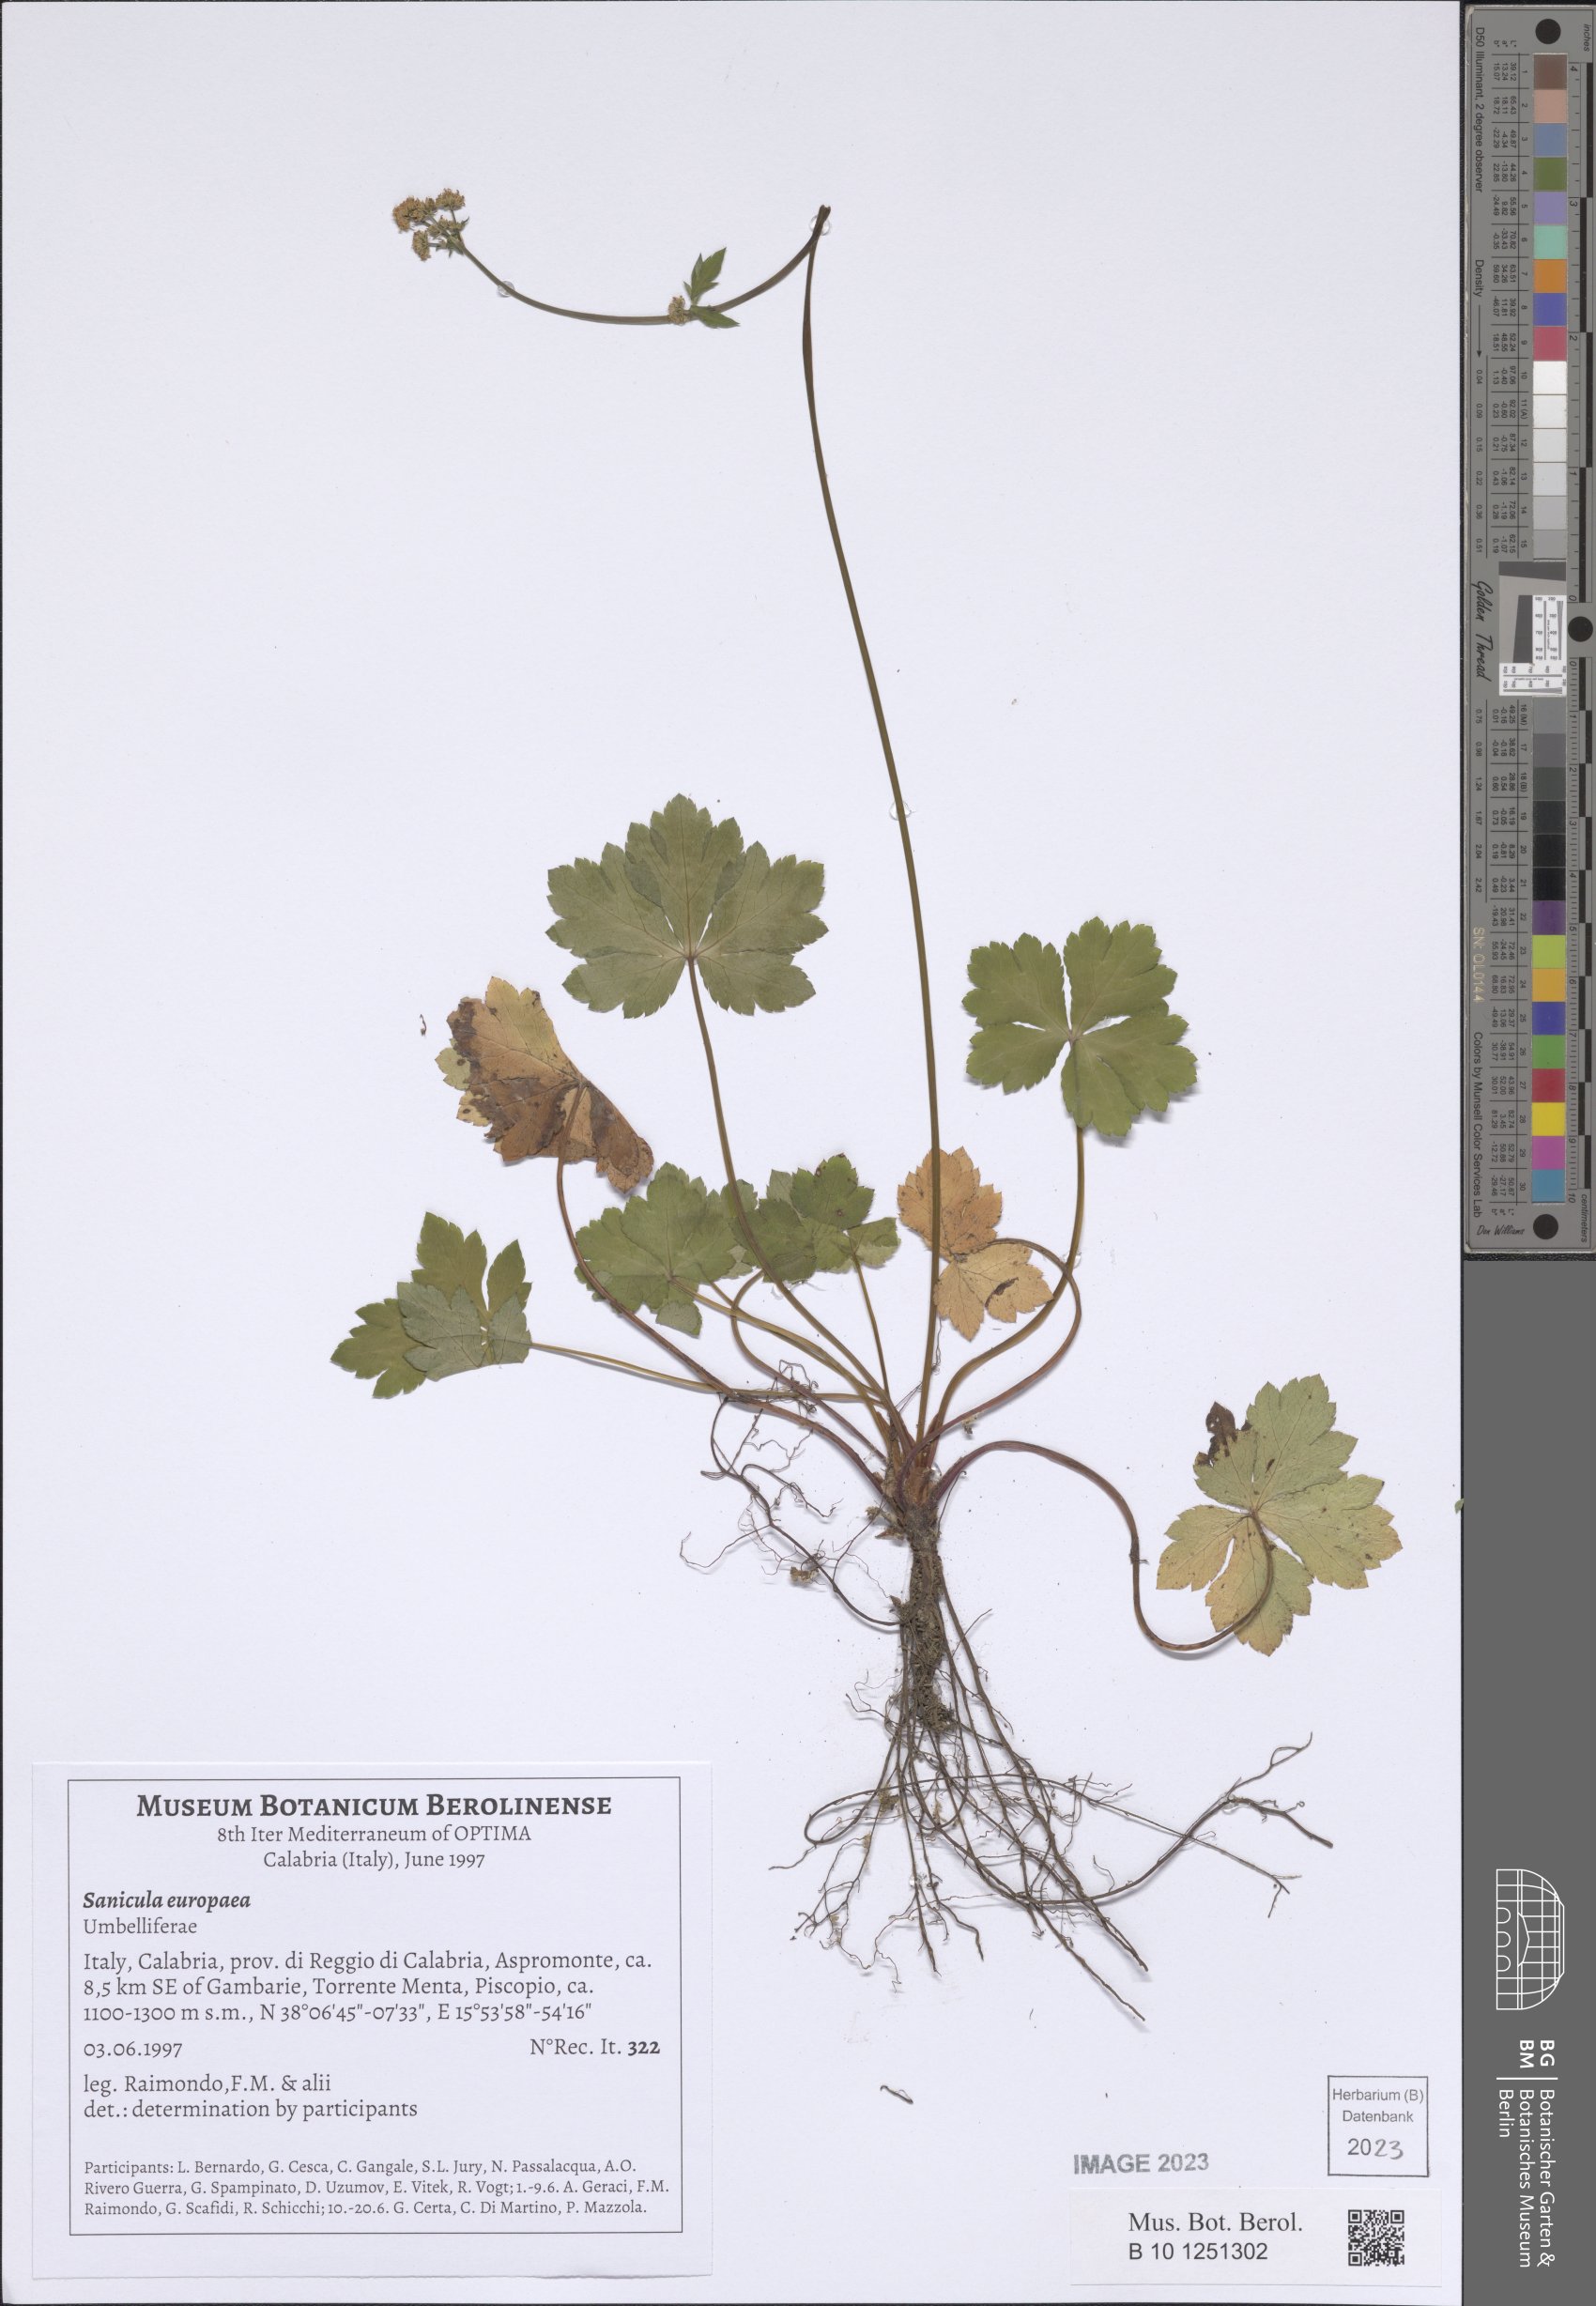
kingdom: Plantae
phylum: Tracheophyta
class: Magnoliopsida
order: Apiales
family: Apiaceae
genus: Sanicula
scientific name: Sanicula europaea
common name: Sanicle
